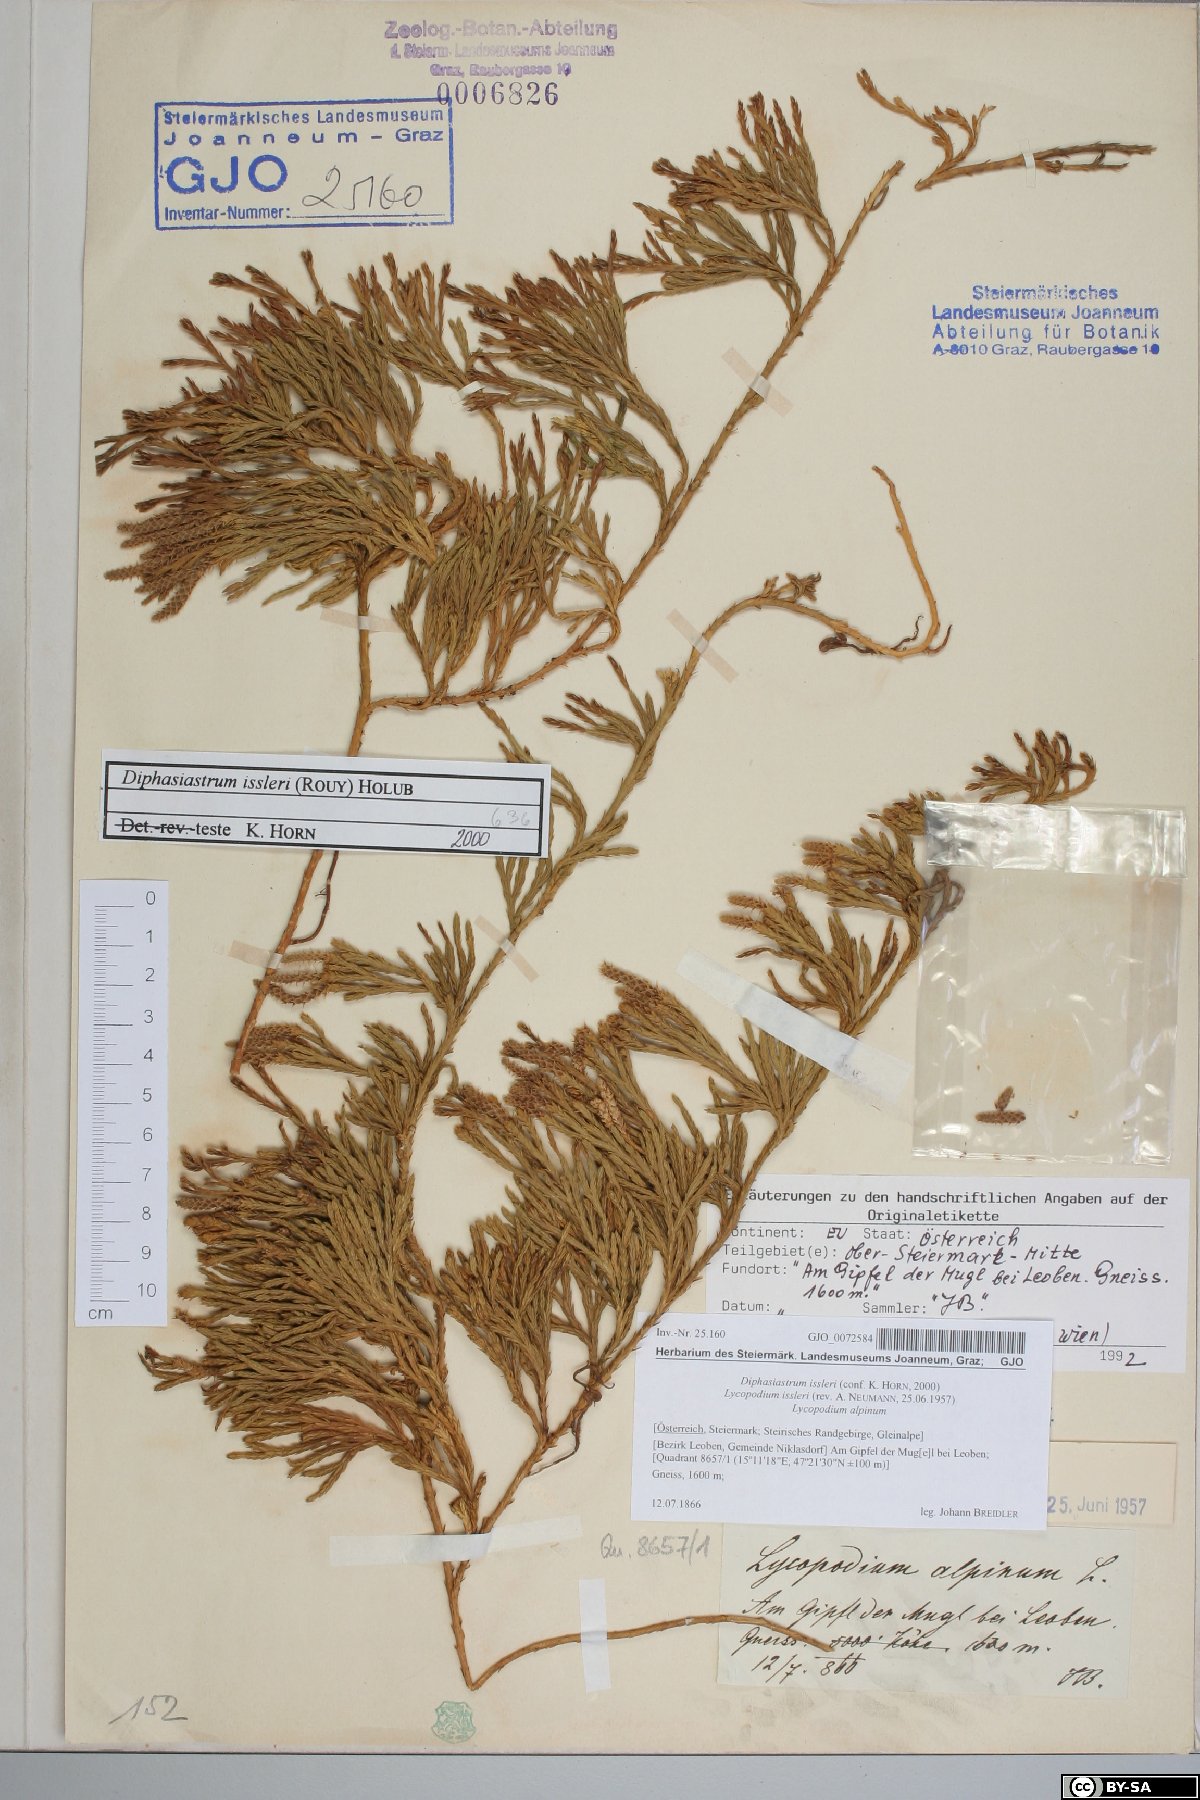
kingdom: Plantae
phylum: Tracheophyta
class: Lycopodiopsida
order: Lycopodiales
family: Lycopodiaceae
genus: Diphasiastrum
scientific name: Diphasiastrum issleri
